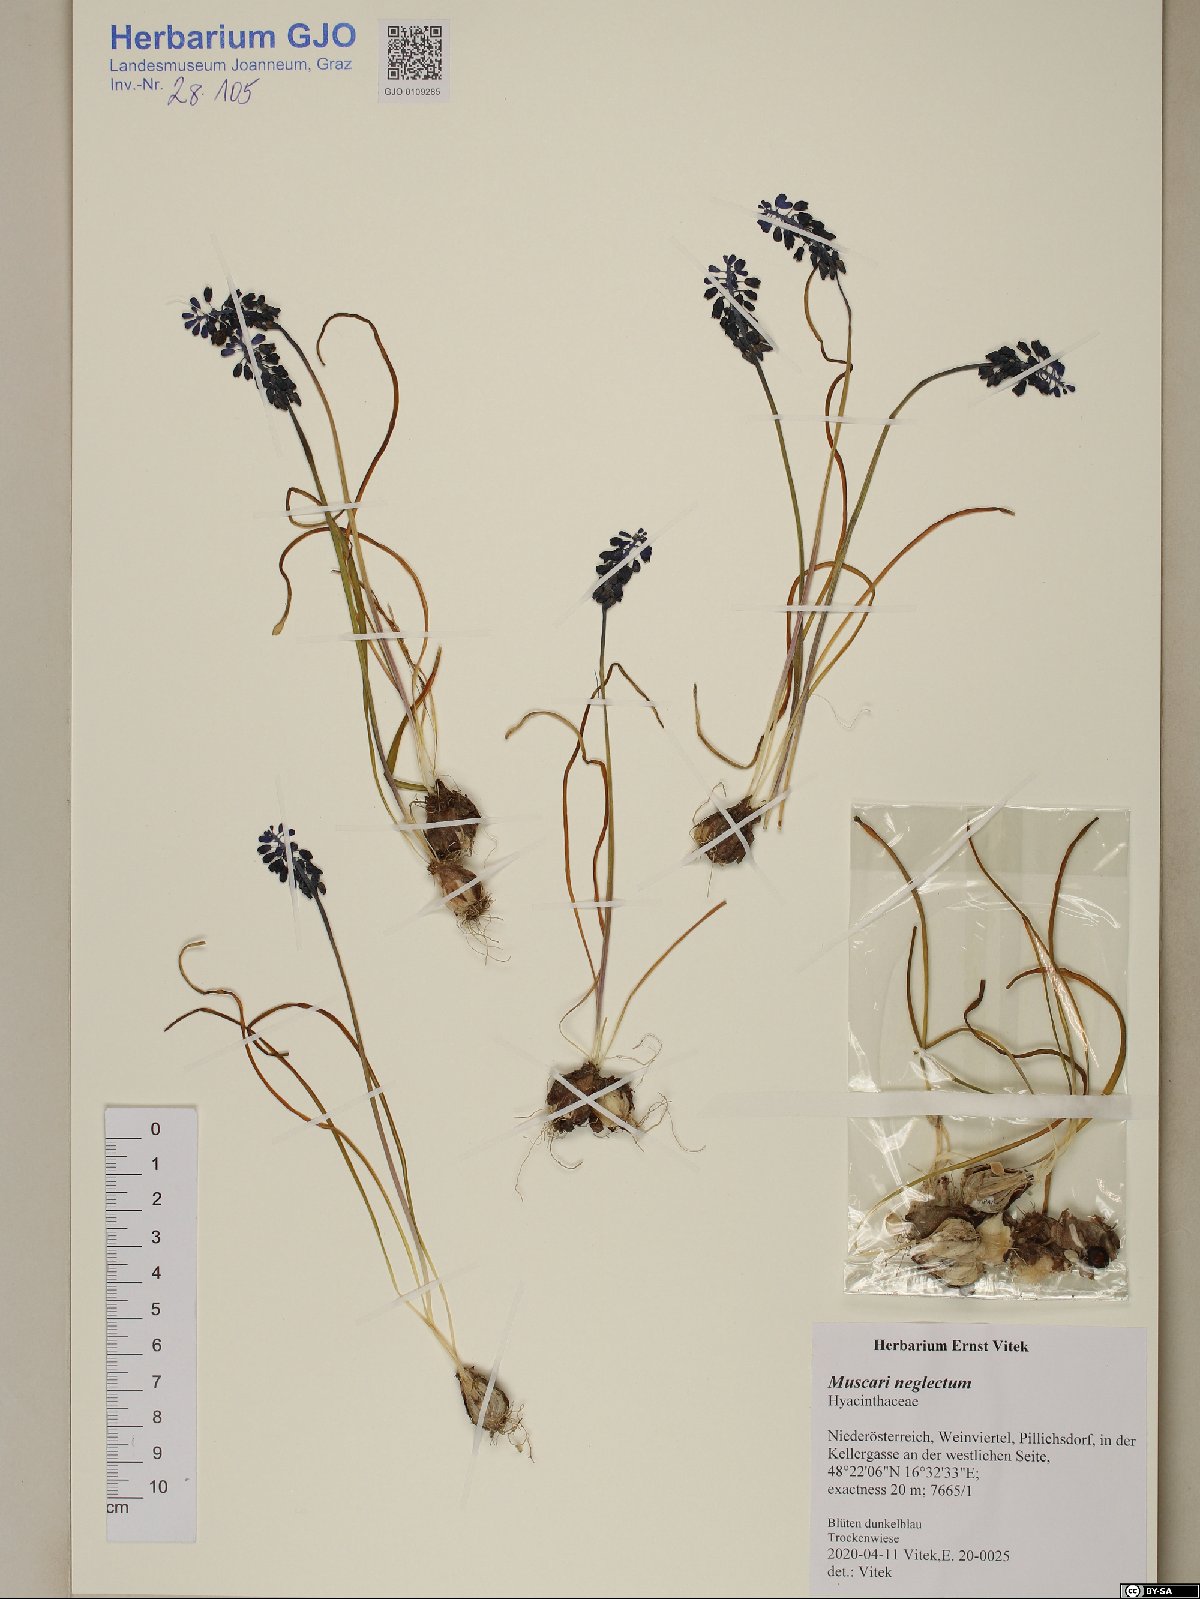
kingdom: Plantae
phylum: Tracheophyta
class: Liliopsida
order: Asparagales
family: Asparagaceae
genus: Muscari
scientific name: Muscari neglectum
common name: Grape-hyacinth
